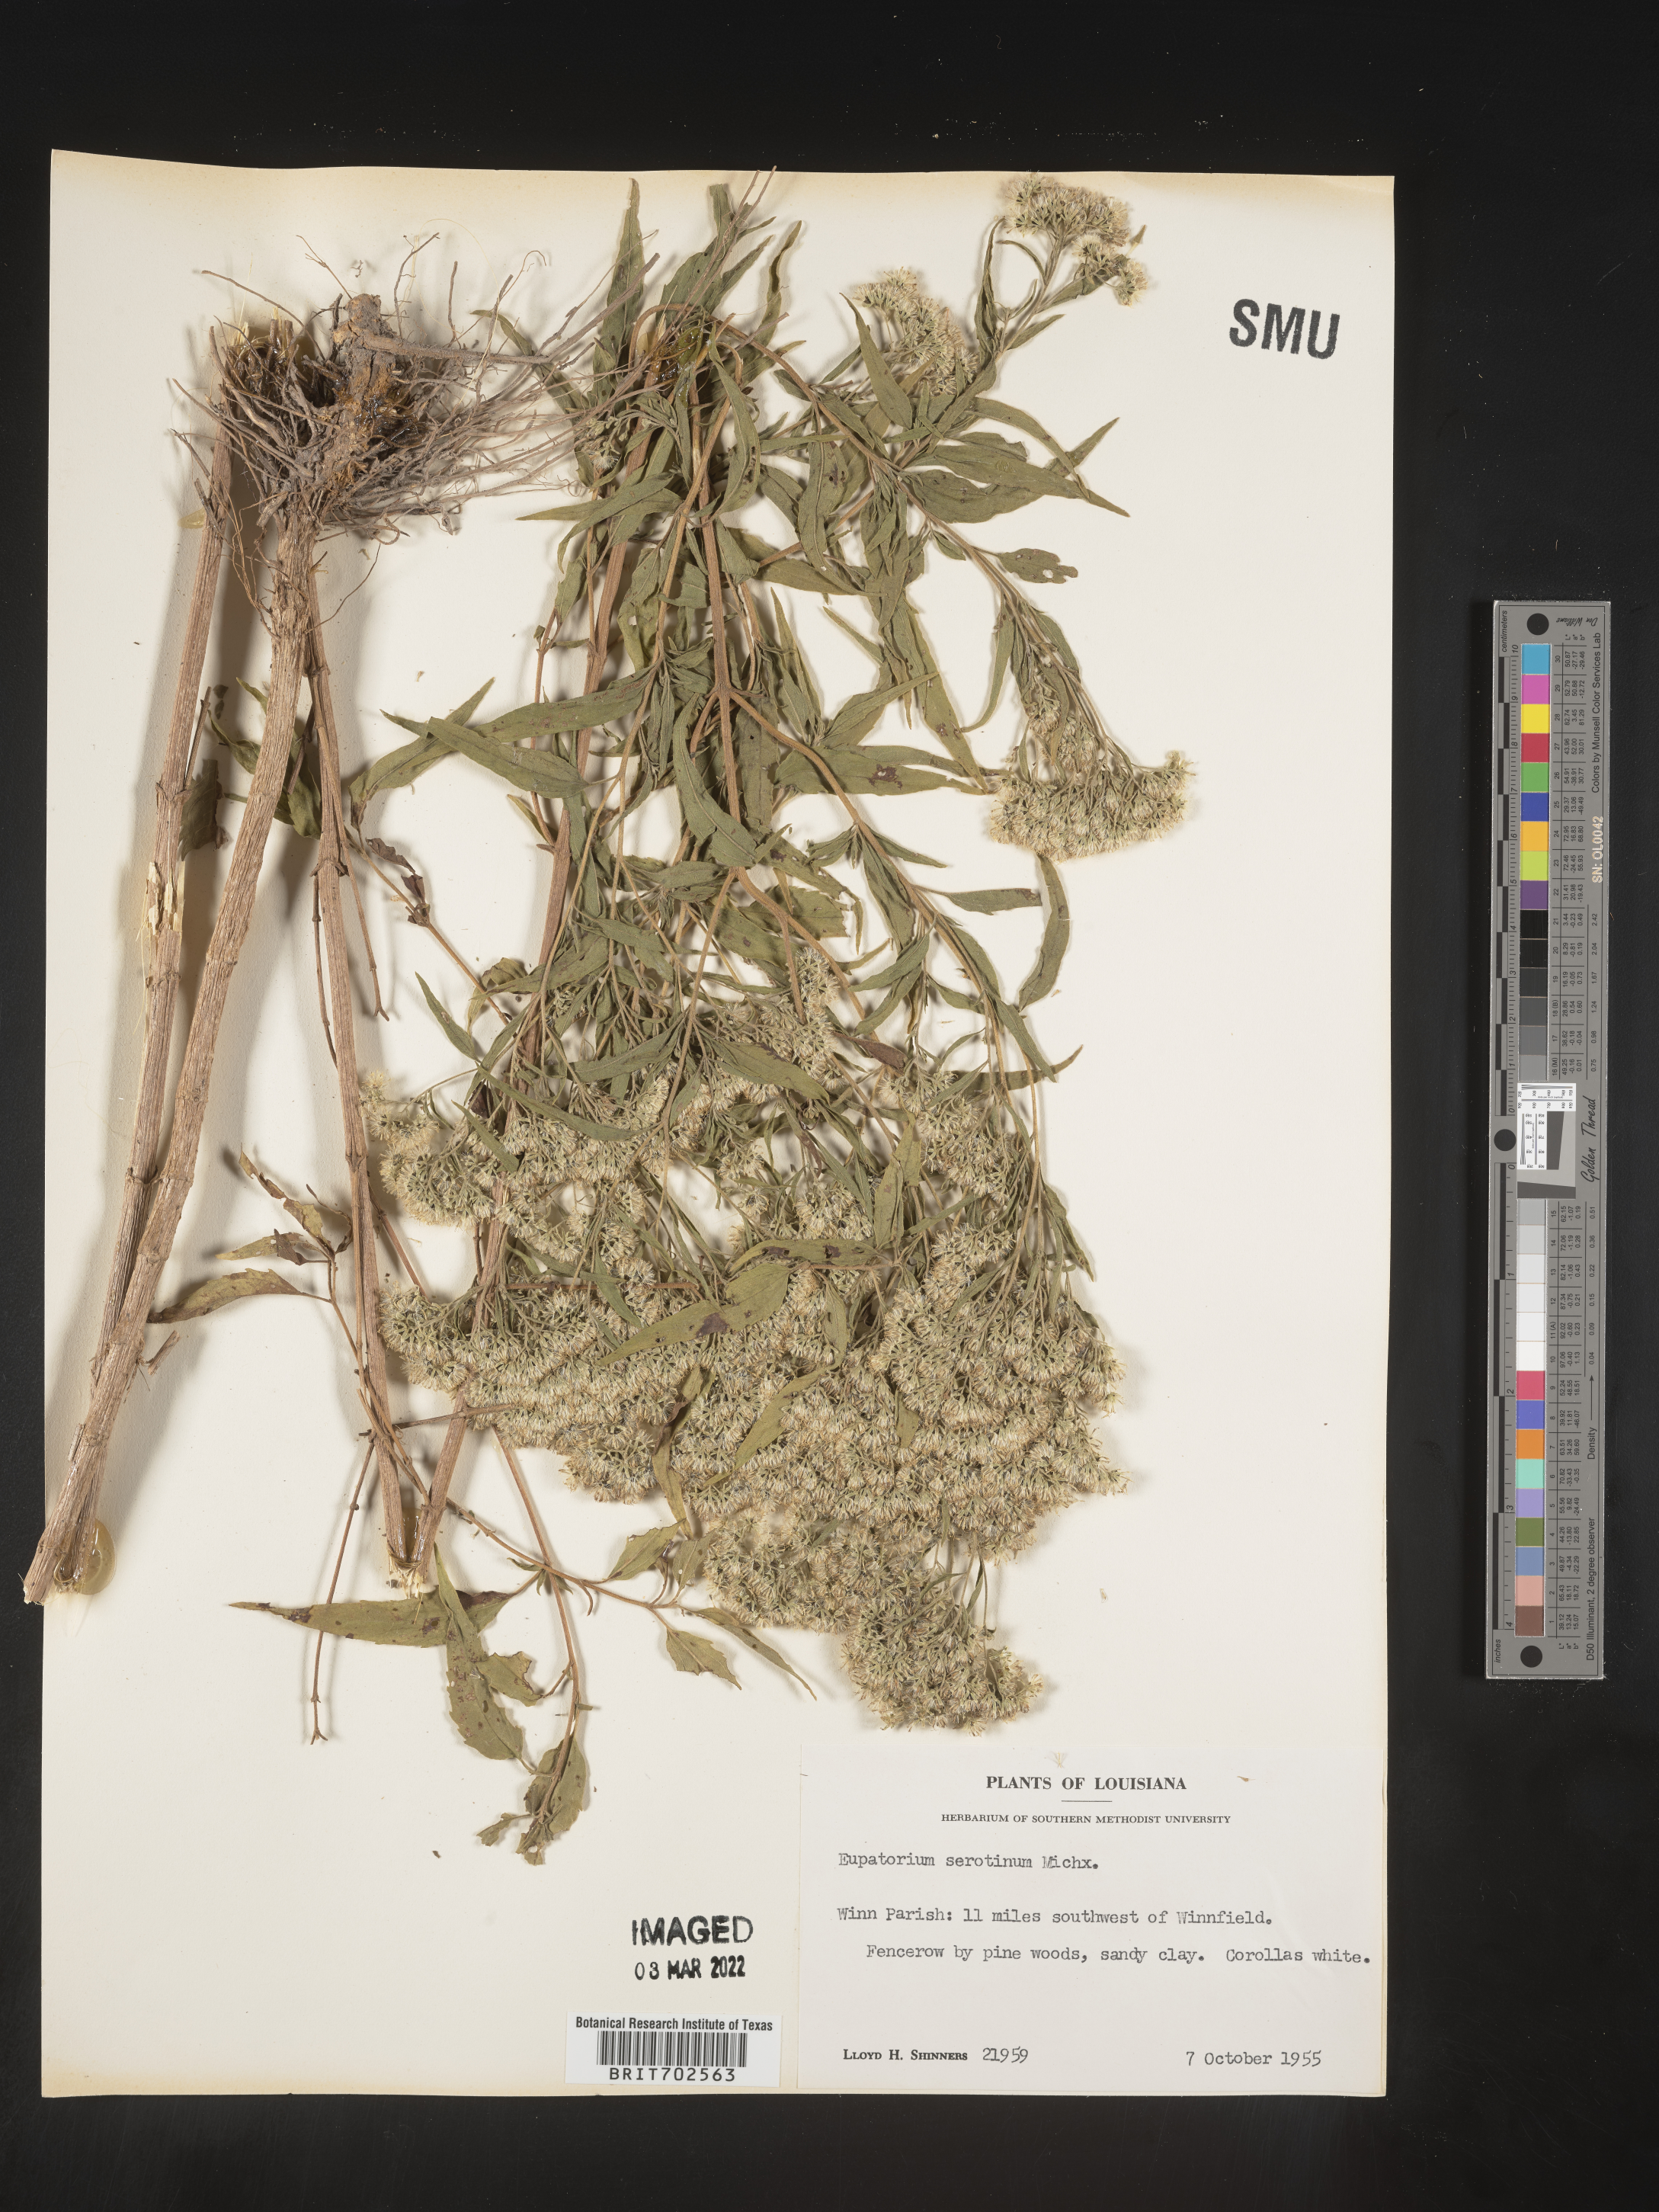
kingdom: Plantae
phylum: Tracheophyta
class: Magnoliopsida
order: Asterales
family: Asteraceae
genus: Eupatorium
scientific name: Eupatorium serotinum
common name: Late boneset
